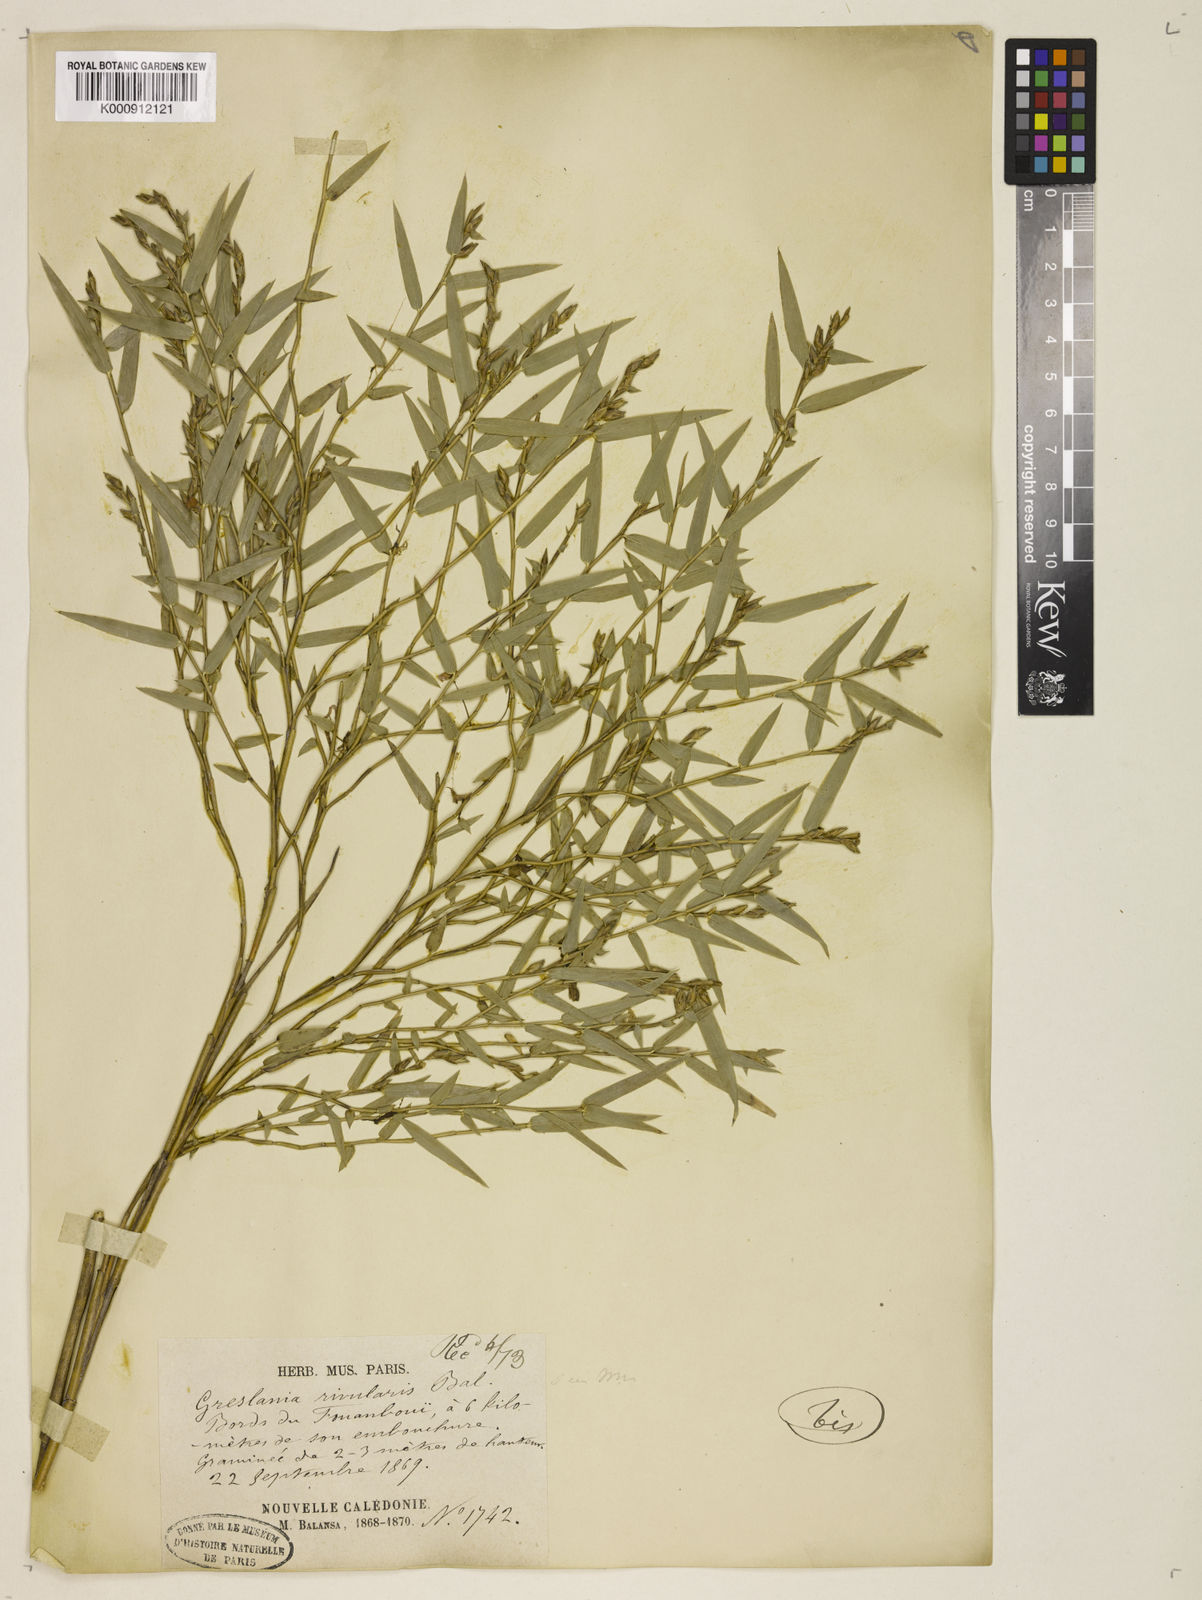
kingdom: Plantae
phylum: Tracheophyta
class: Liliopsida
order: Poales
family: Poaceae
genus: Greslania
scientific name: Greslania rivularis
